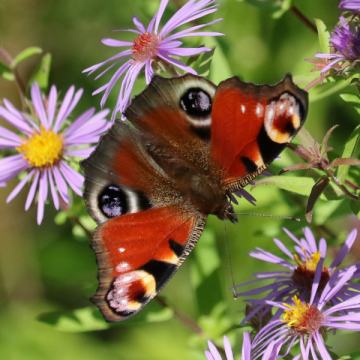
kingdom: Animalia
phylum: Arthropoda
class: Insecta
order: Lepidoptera
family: Nymphalidae
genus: Aglais
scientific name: Aglais io
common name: European Peacock
